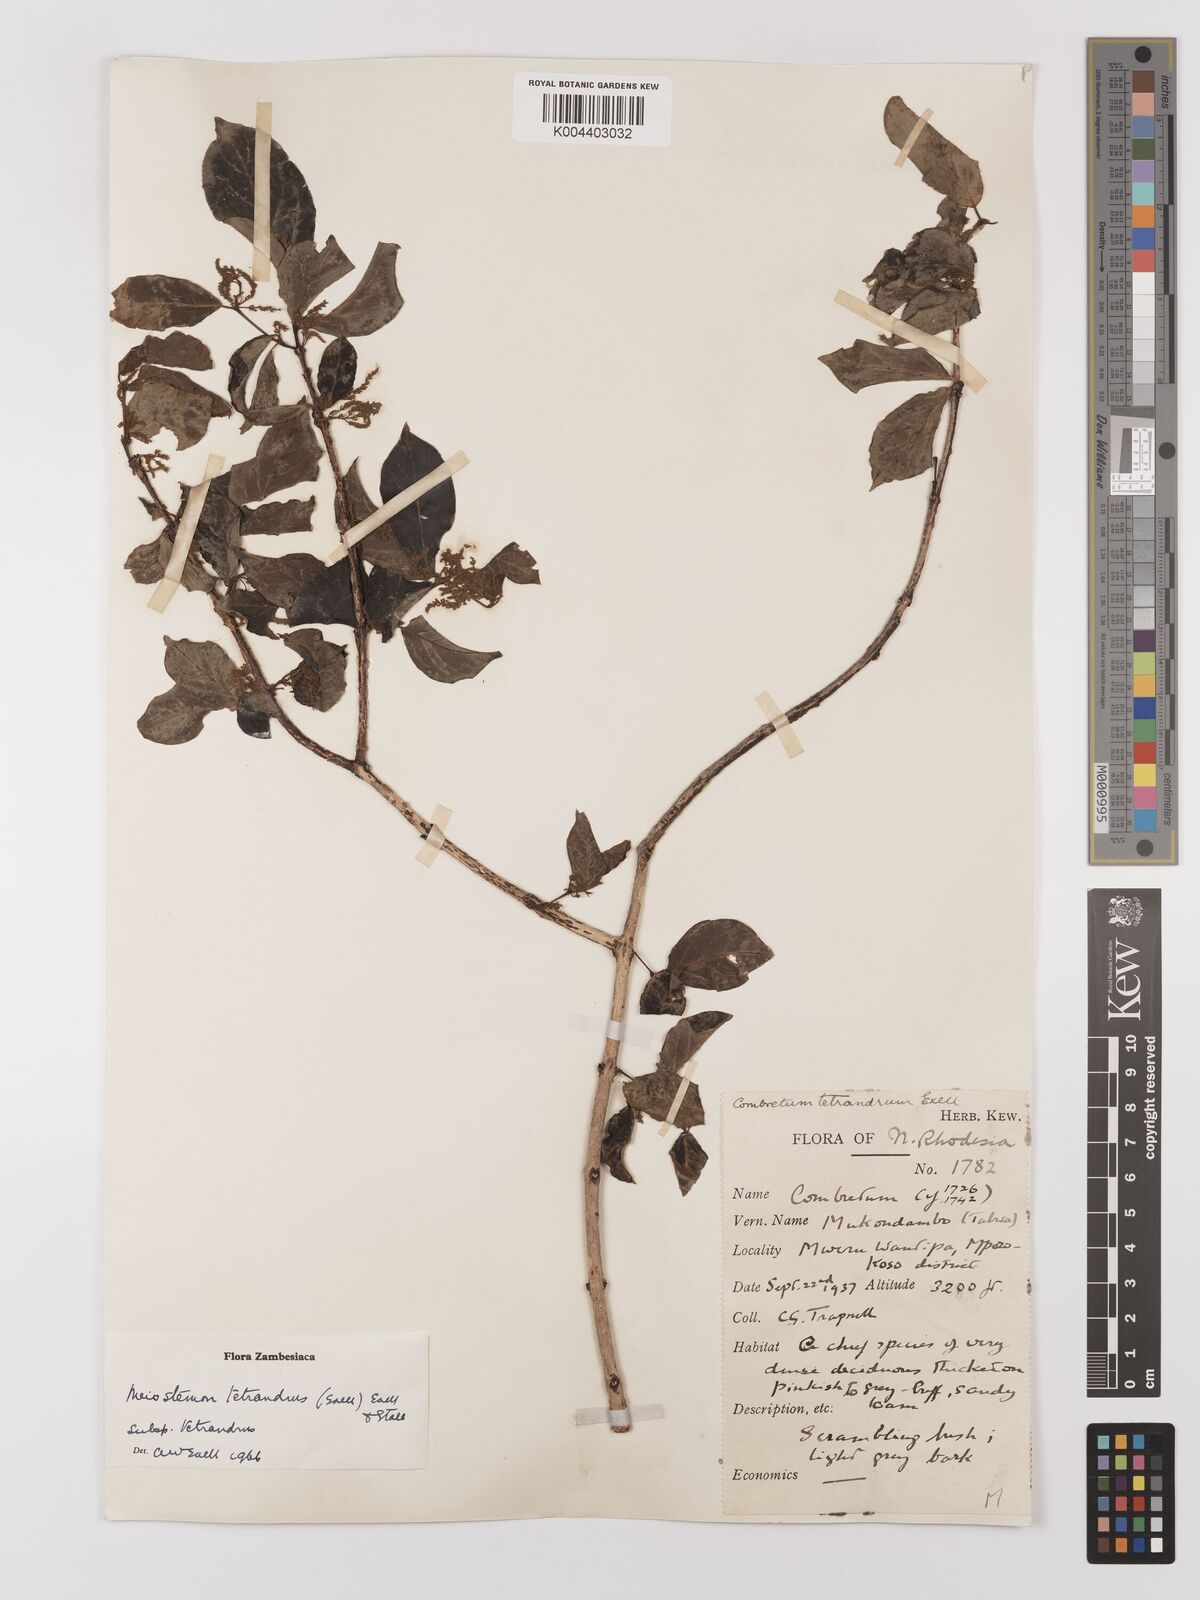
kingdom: Plantae
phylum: Tracheophyta
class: Magnoliopsida
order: Myrtales
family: Combretaceae
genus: Combretum
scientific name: Combretum tetrandrum
